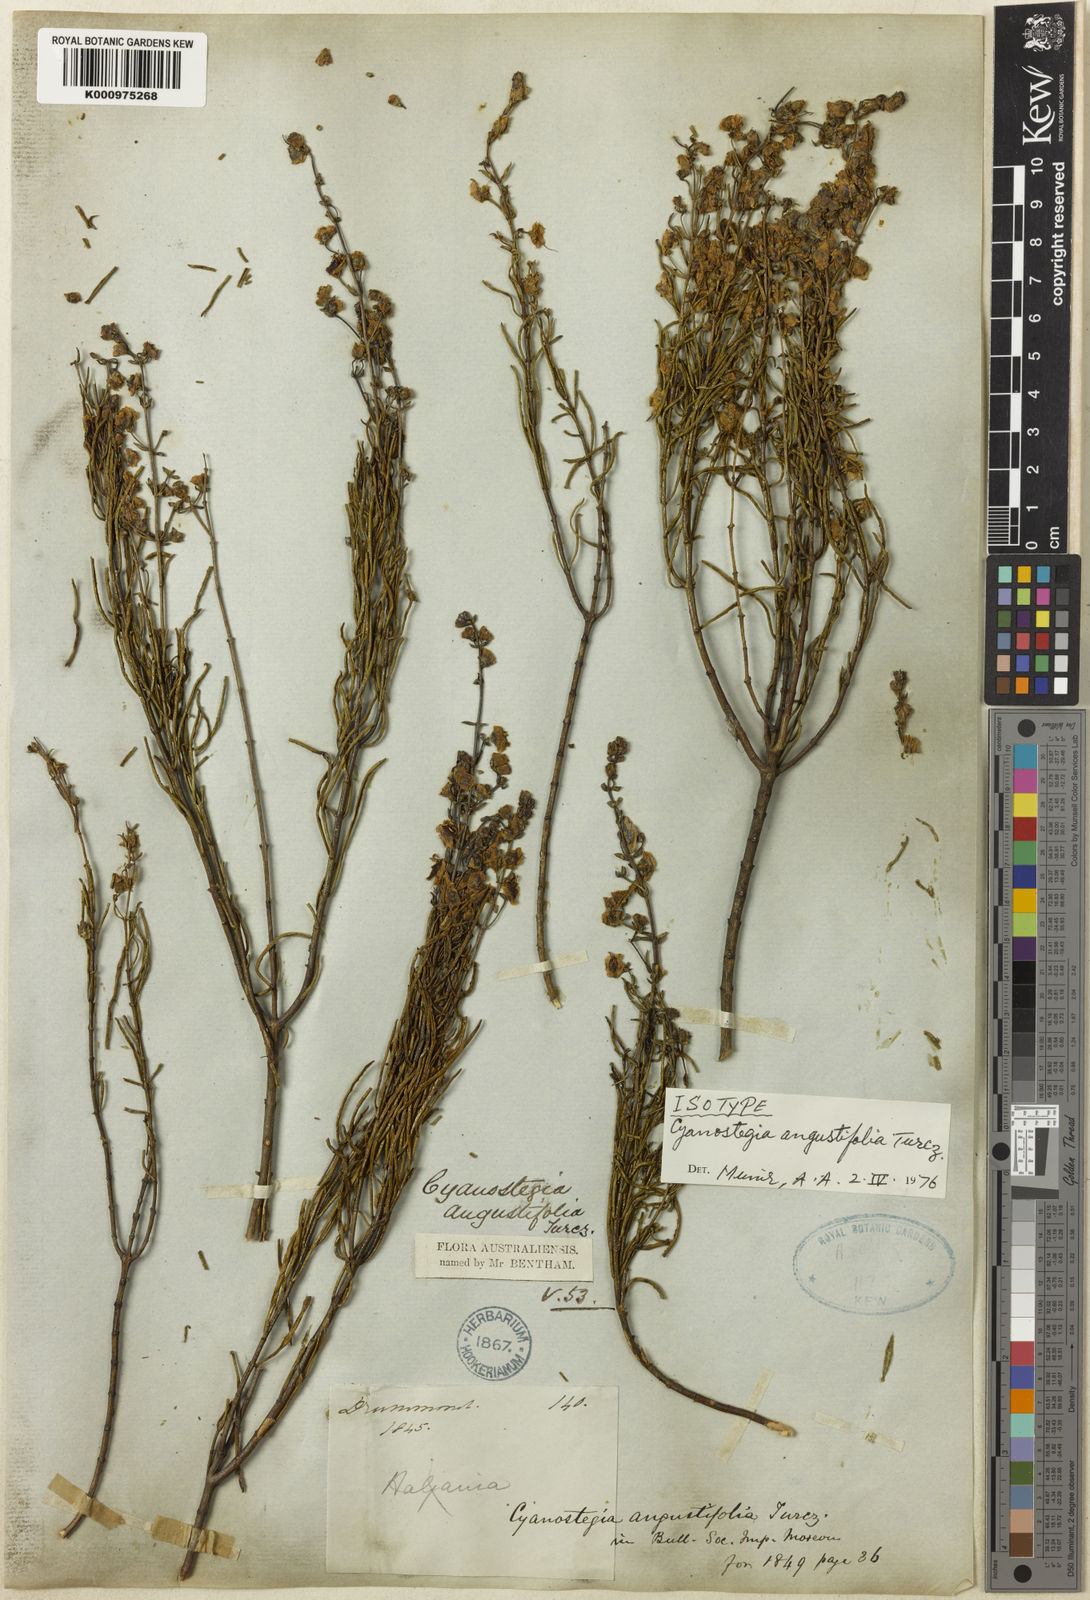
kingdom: Plantae
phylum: Tracheophyta
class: Magnoliopsida
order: Lamiales
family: Lamiaceae
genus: Cyanostegia
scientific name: Cyanostegia angustifolia
